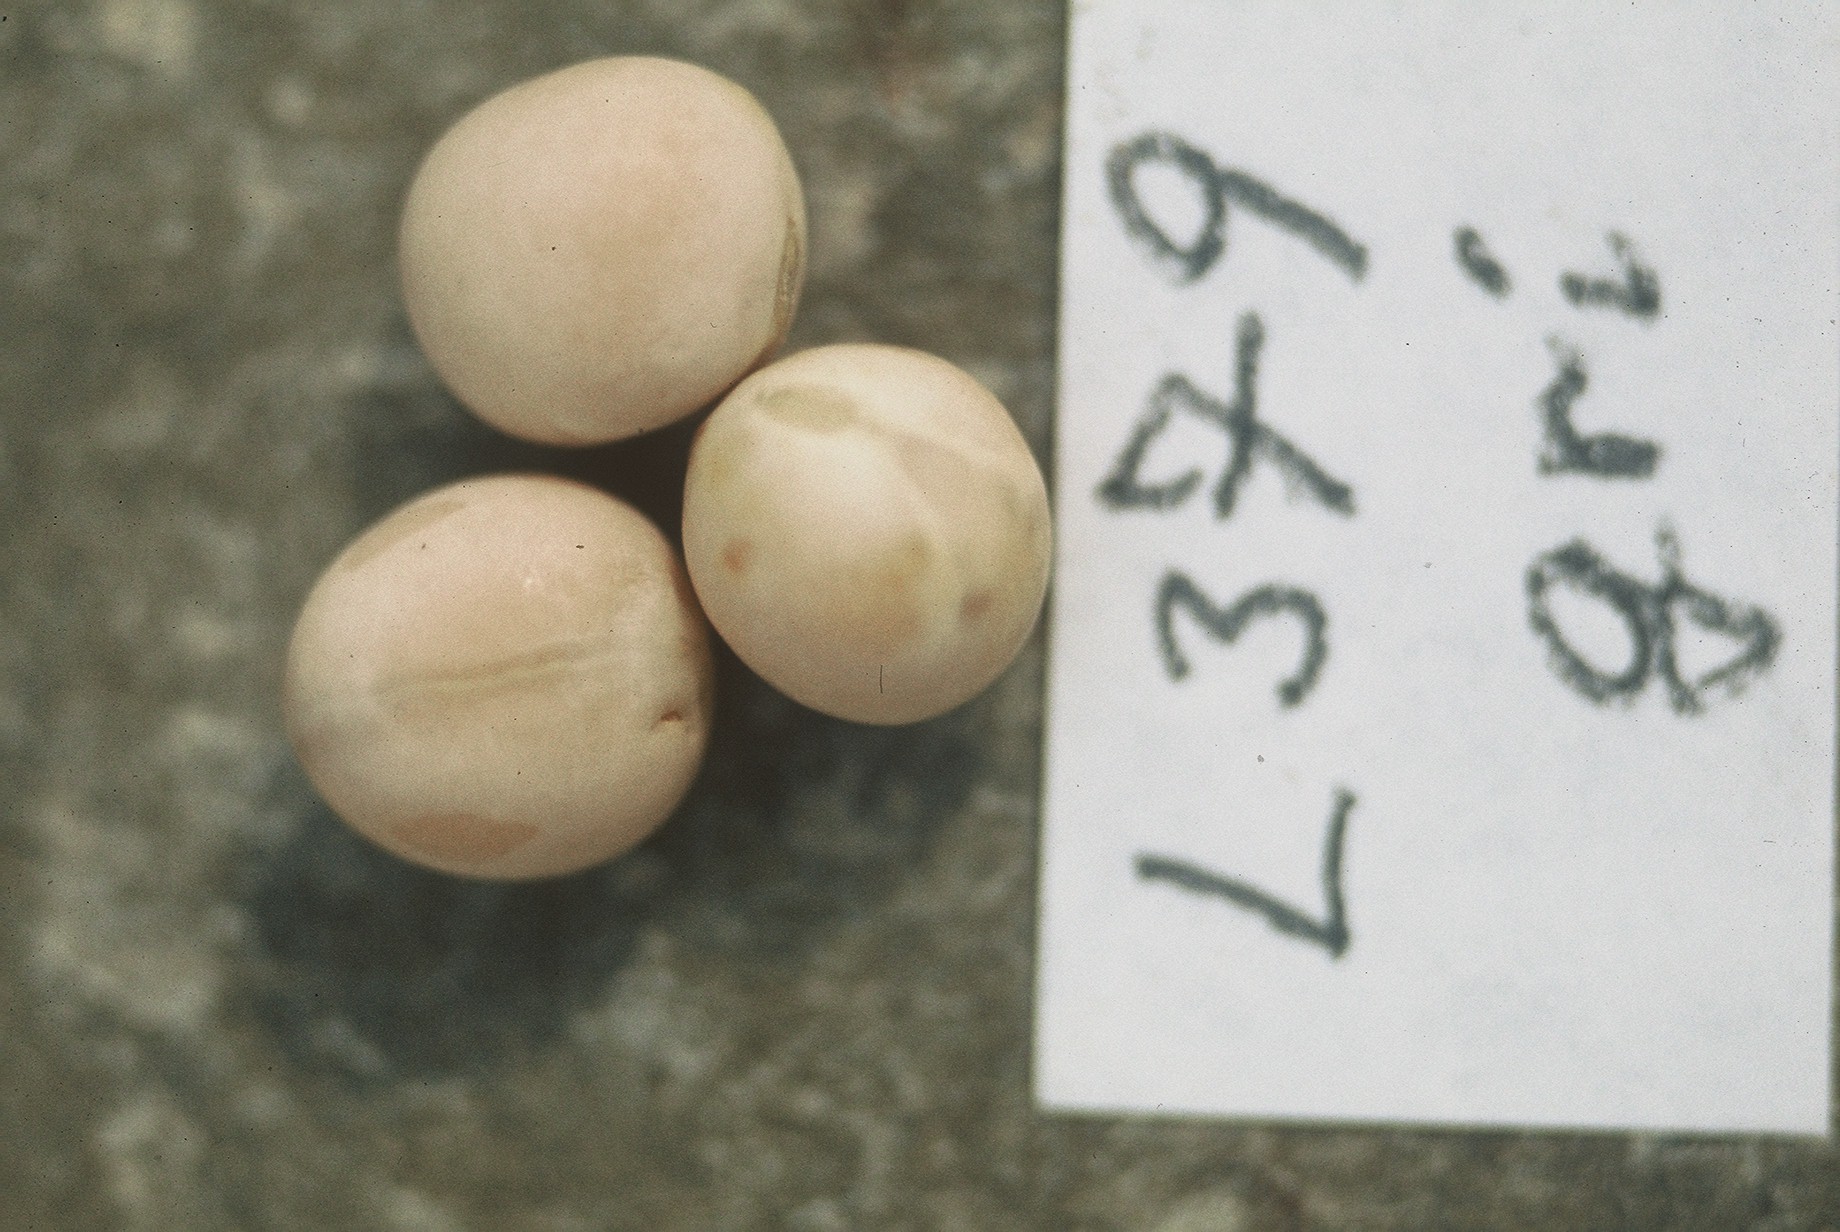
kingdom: Plantae
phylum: Tracheophyta
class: Magnoliopsida
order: Fabales
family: Fabaceae
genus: Lathyrus
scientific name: Lathyrus oleraceus
